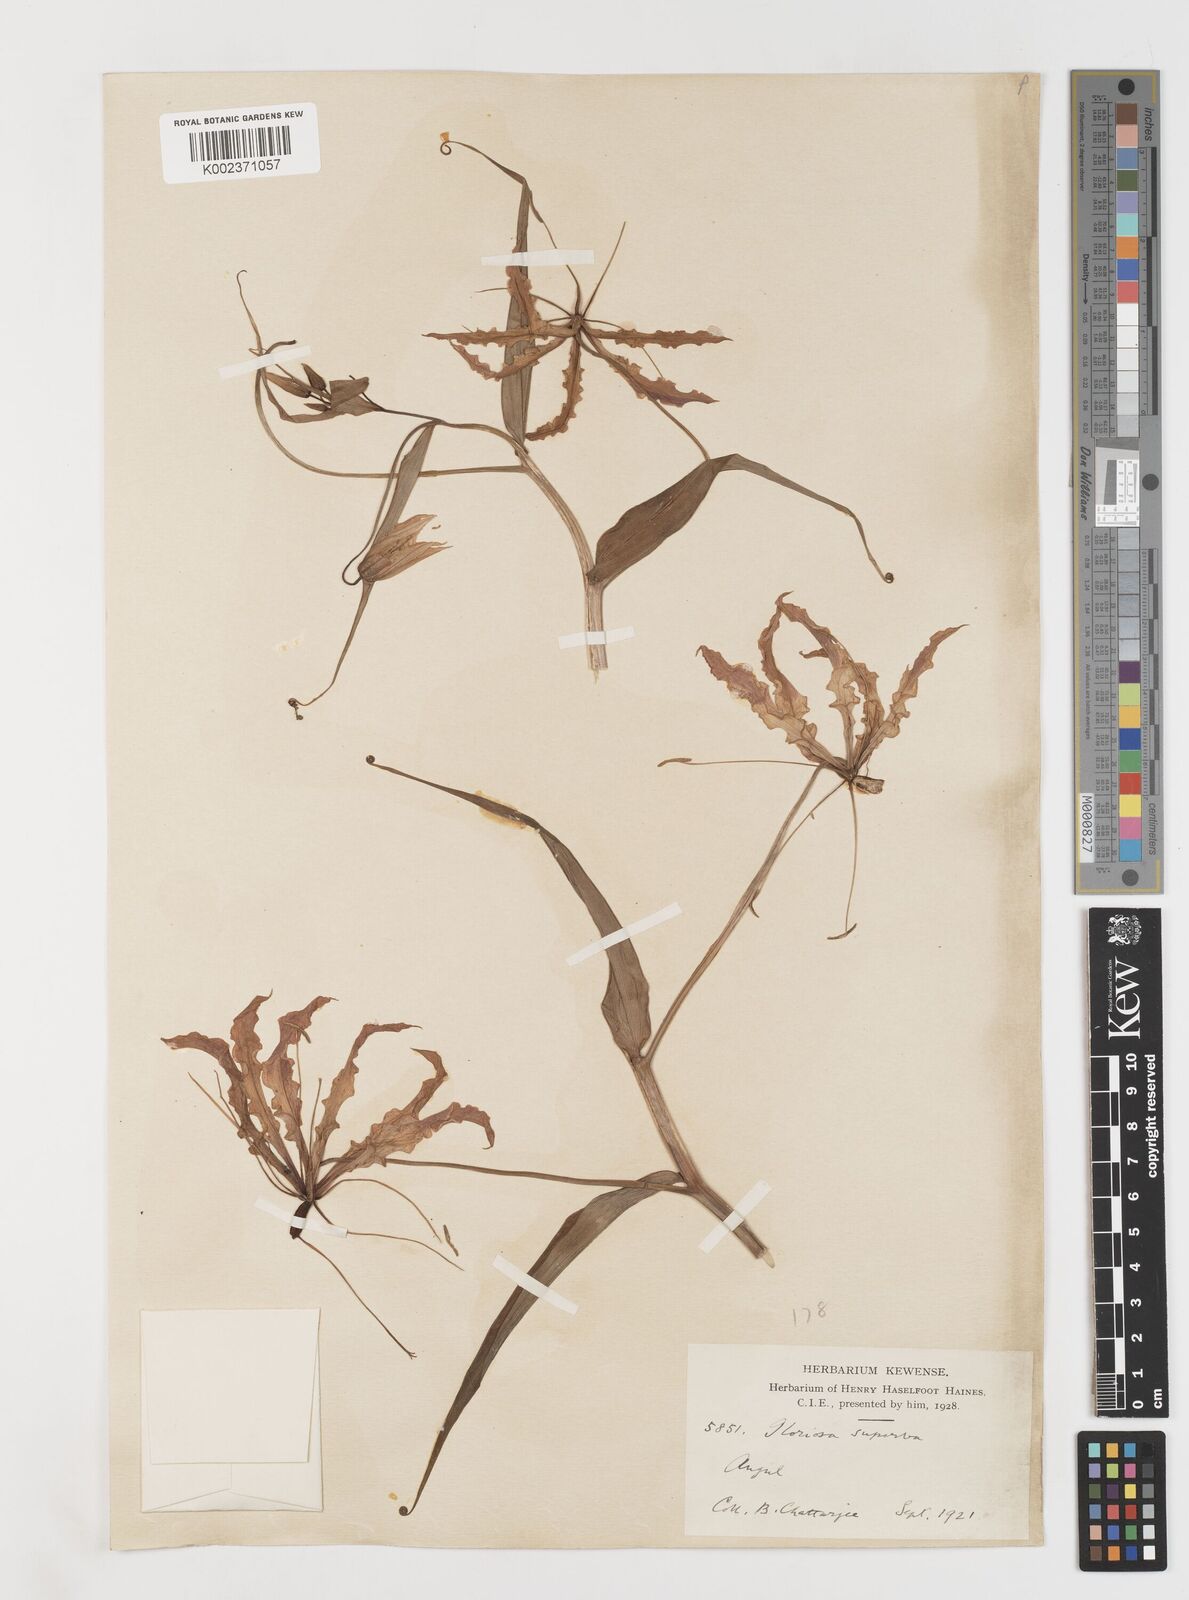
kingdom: Plantae
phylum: Tracheophyta
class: Liliopsida
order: Liliales
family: Colchicaceae
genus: Gloriosa
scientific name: Gloriosa superba
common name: Flame lily
